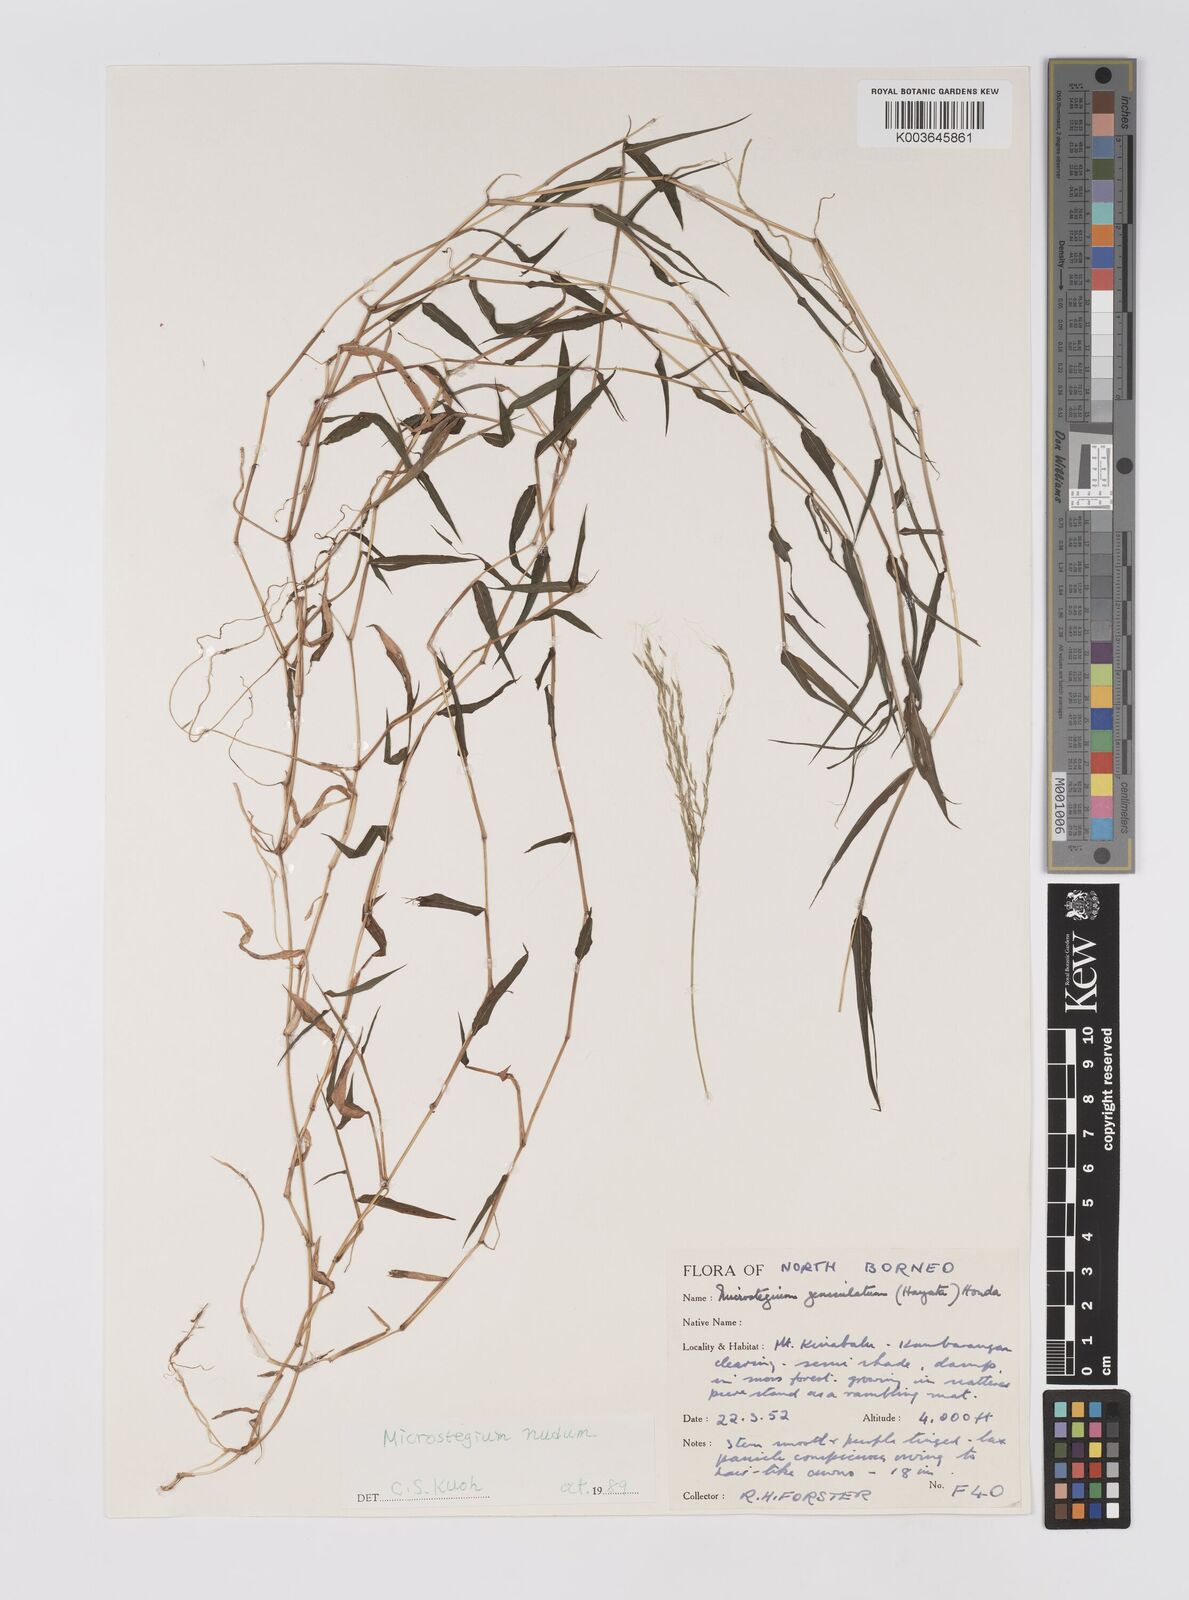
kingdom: Plantae
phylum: Tracheophyta
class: Liliopsida
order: Poales
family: Poaceae
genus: Microstegium
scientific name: Microstegium nudum
